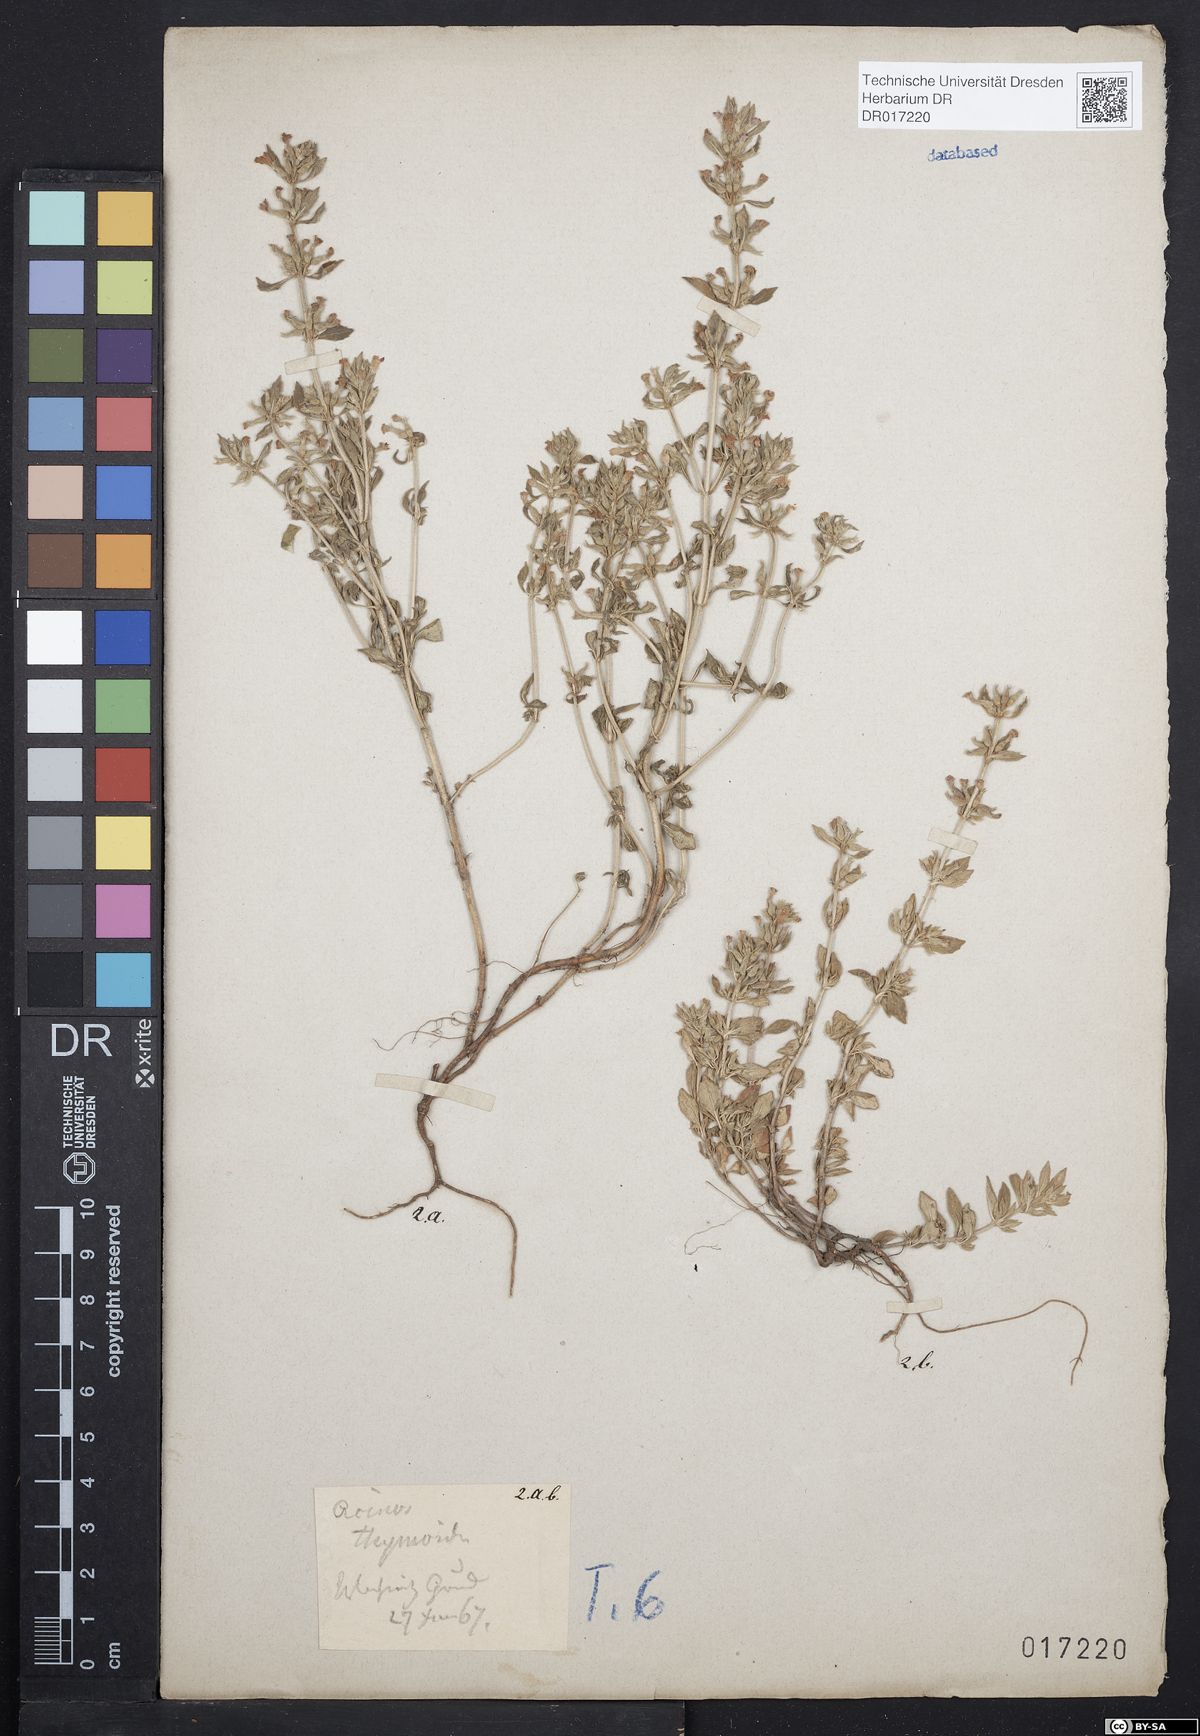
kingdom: Plantae
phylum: Tracheophyta
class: Magnoliopsida
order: Lamiales
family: Lamiaceae
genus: Clinopodium
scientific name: Clinopodium acinos
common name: Basil thyme
